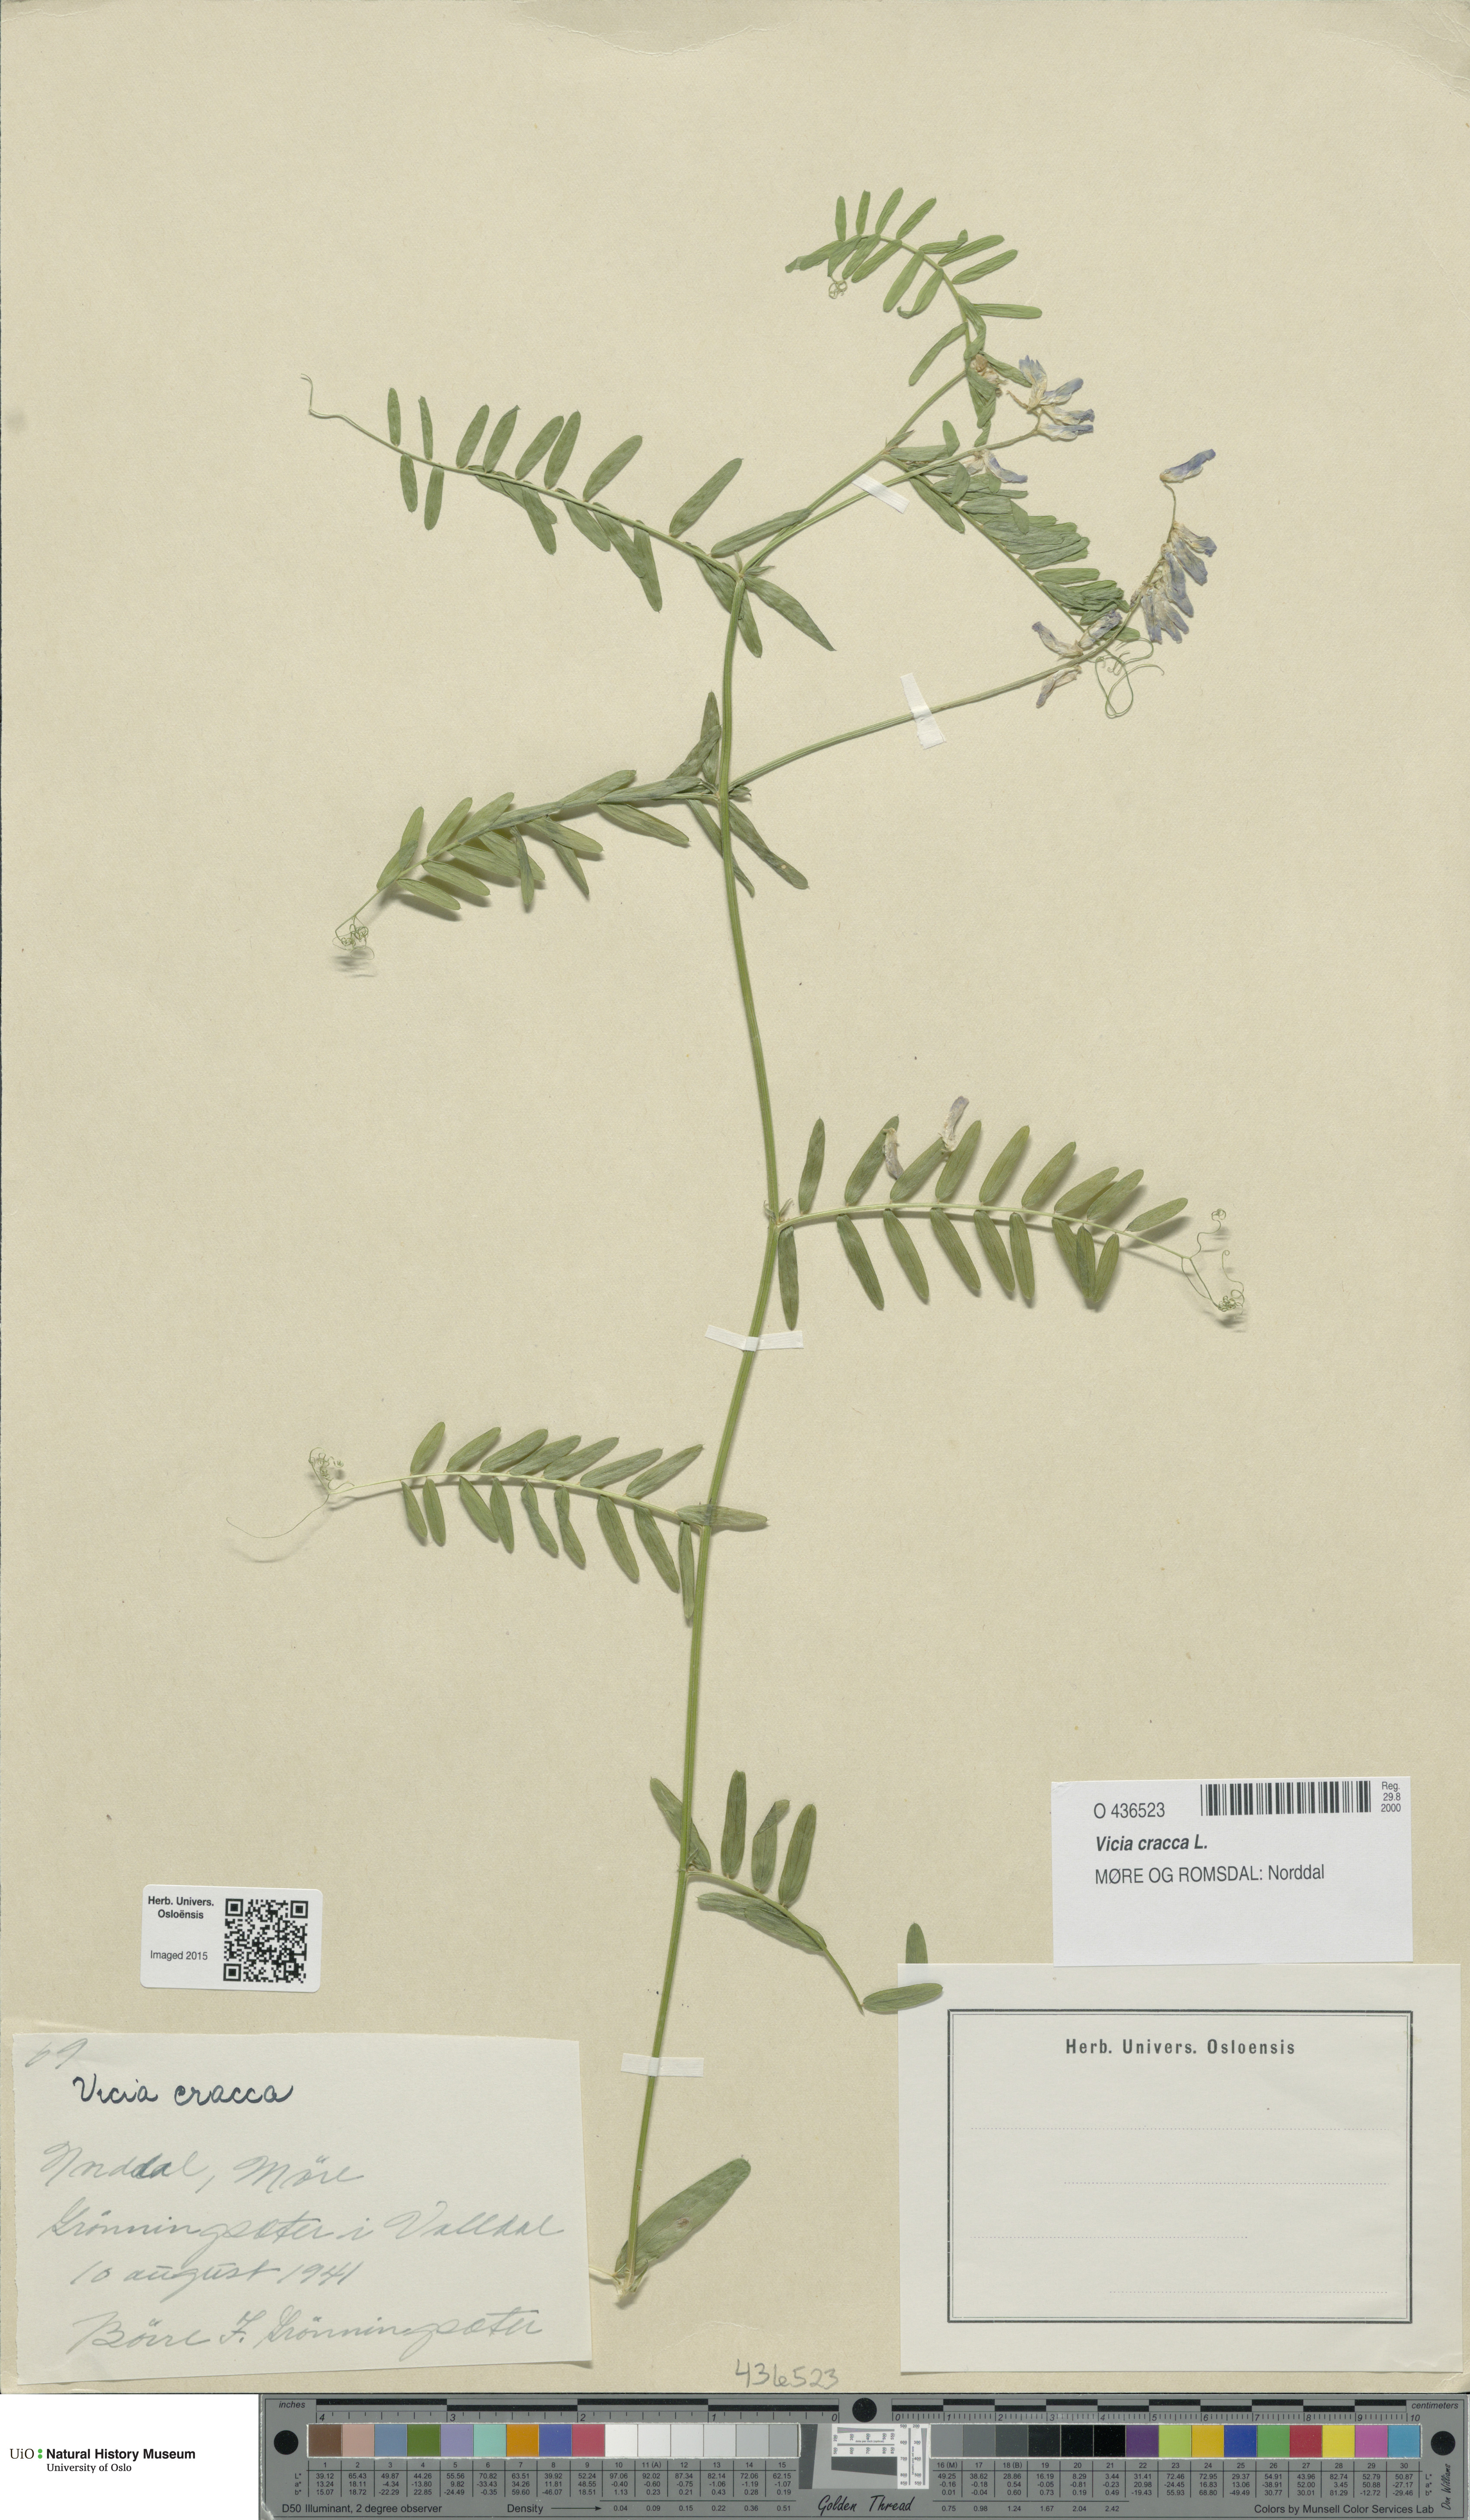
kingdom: Plantae
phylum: Tracheophyta
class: Magnoliopsida
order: Fabales
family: Fabaceae
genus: Vicia
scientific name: Vicia cracca
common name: Bird vetch
